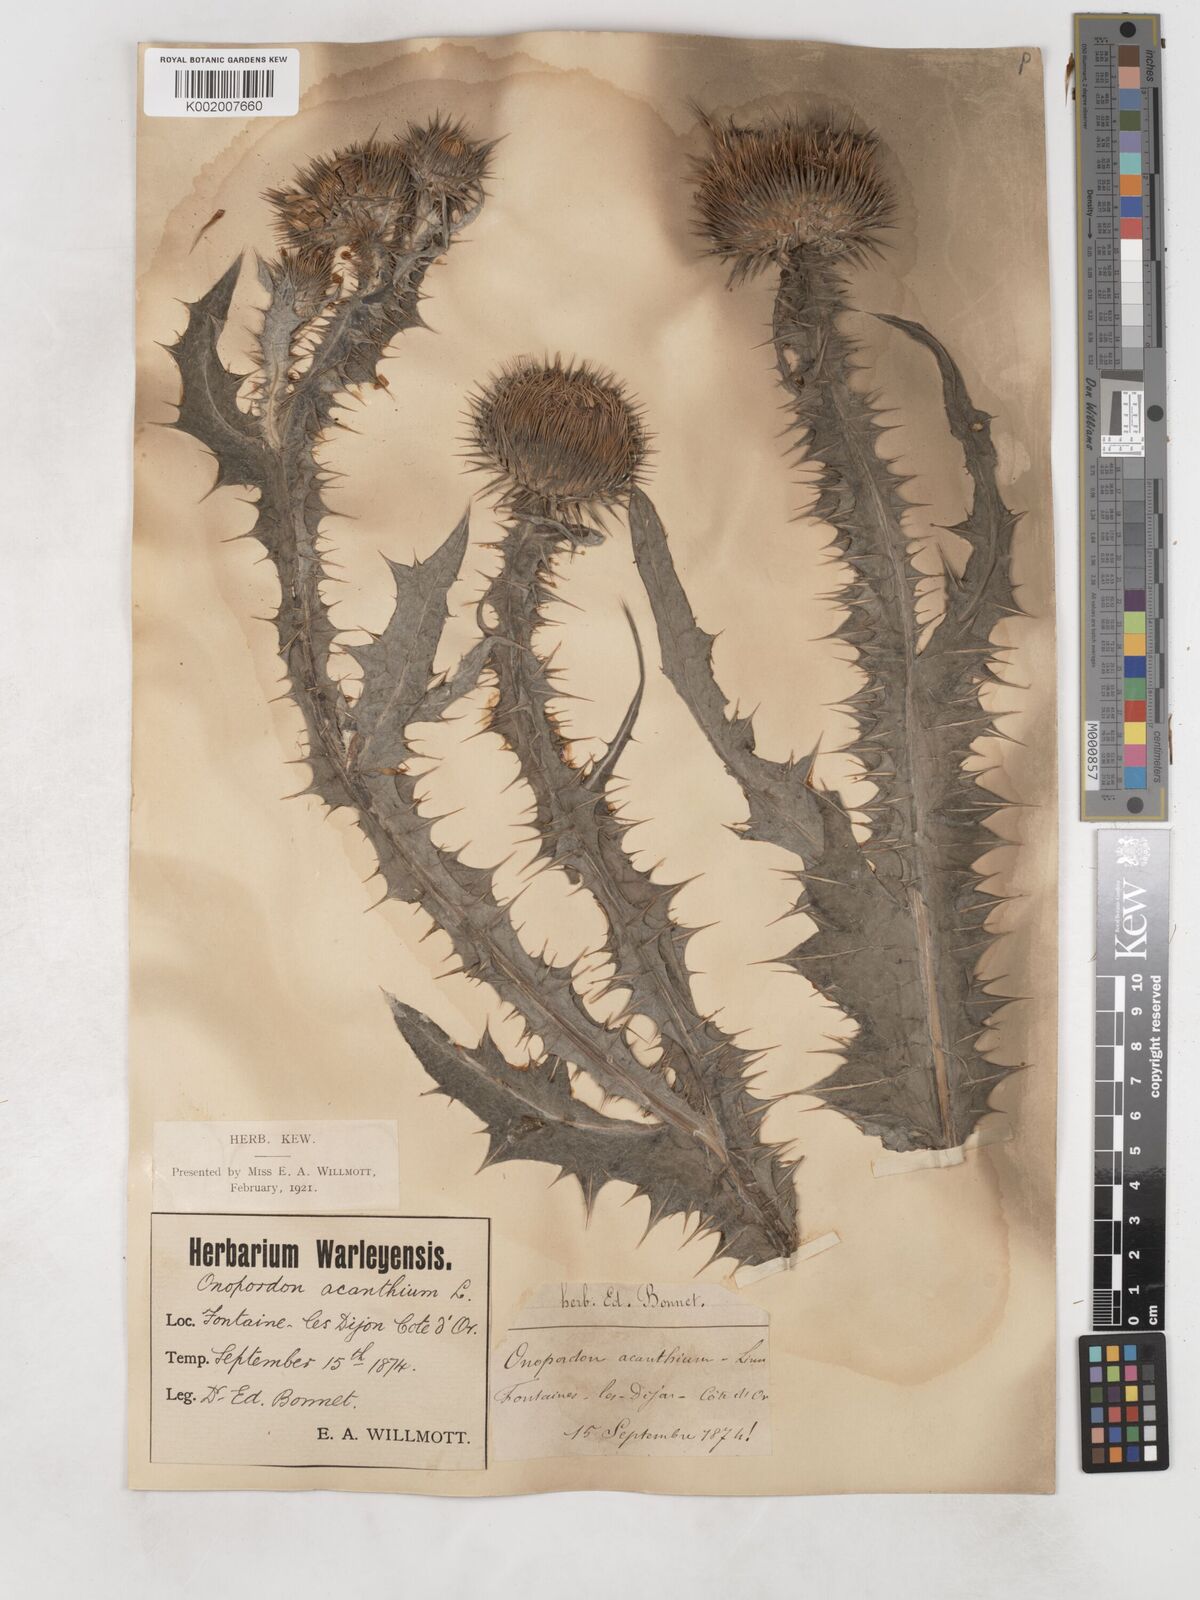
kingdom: Plantae
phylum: Tracheophyta
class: Magnoliopsida
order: Asterales
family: Asteraceae
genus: Onopordum
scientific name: Onopordum acanthium
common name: Scotch thistle
